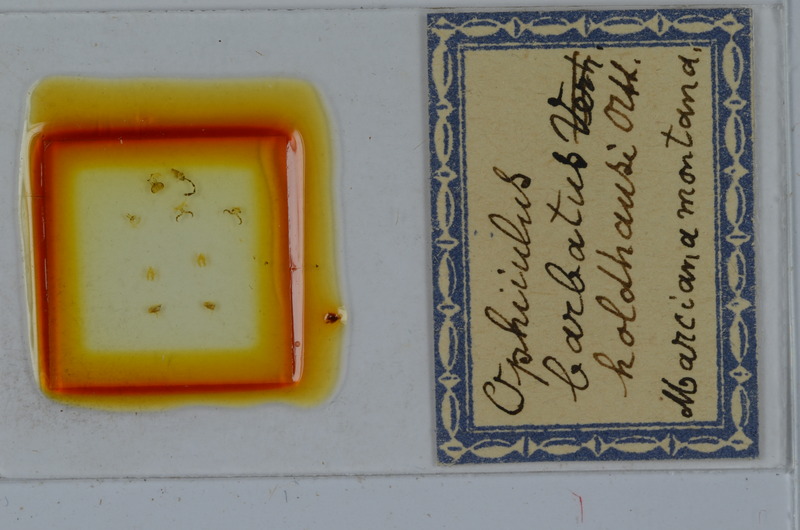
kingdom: Animalia
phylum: Arthropoda
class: Diplopoda
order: Julida
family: Julidae
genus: Ophyiulus
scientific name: Ophyiulus chilopogon
